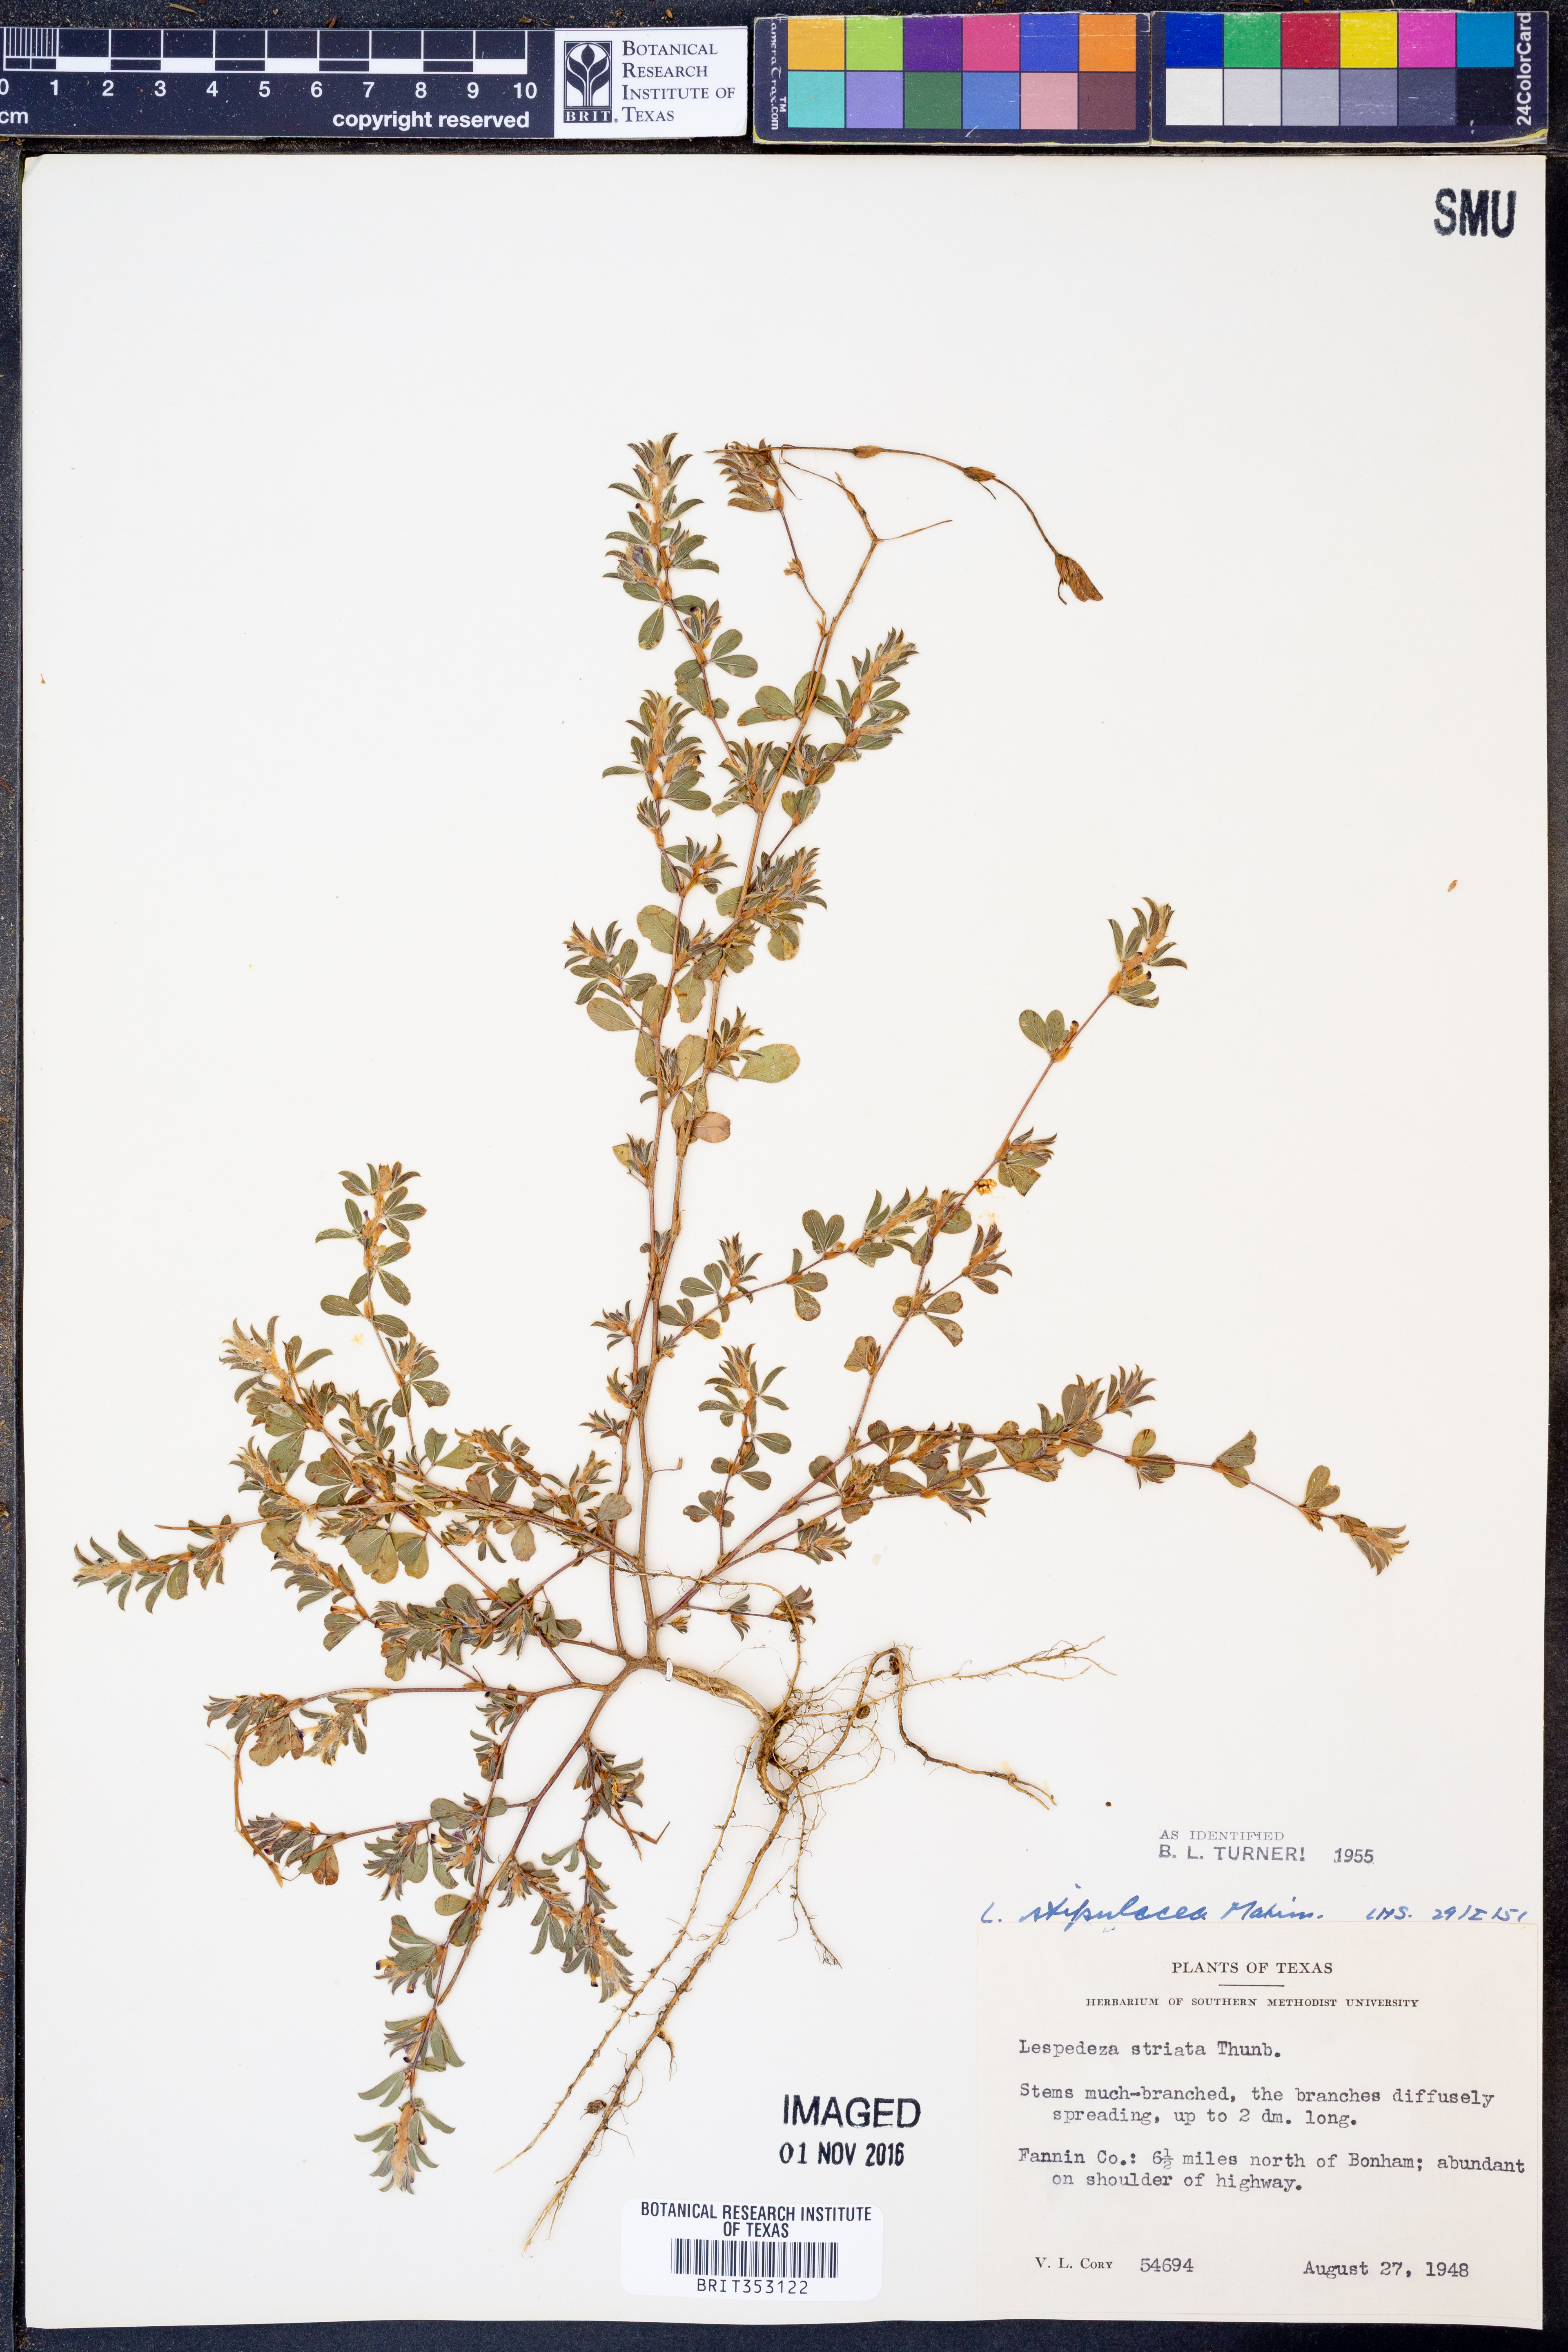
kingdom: Plantae
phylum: Tracheophyta
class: Magnoliopsida
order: Fabales
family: Fabaceae
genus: Lathyrus
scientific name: Lathyrus decaphyllus
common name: Prairie vetchling
